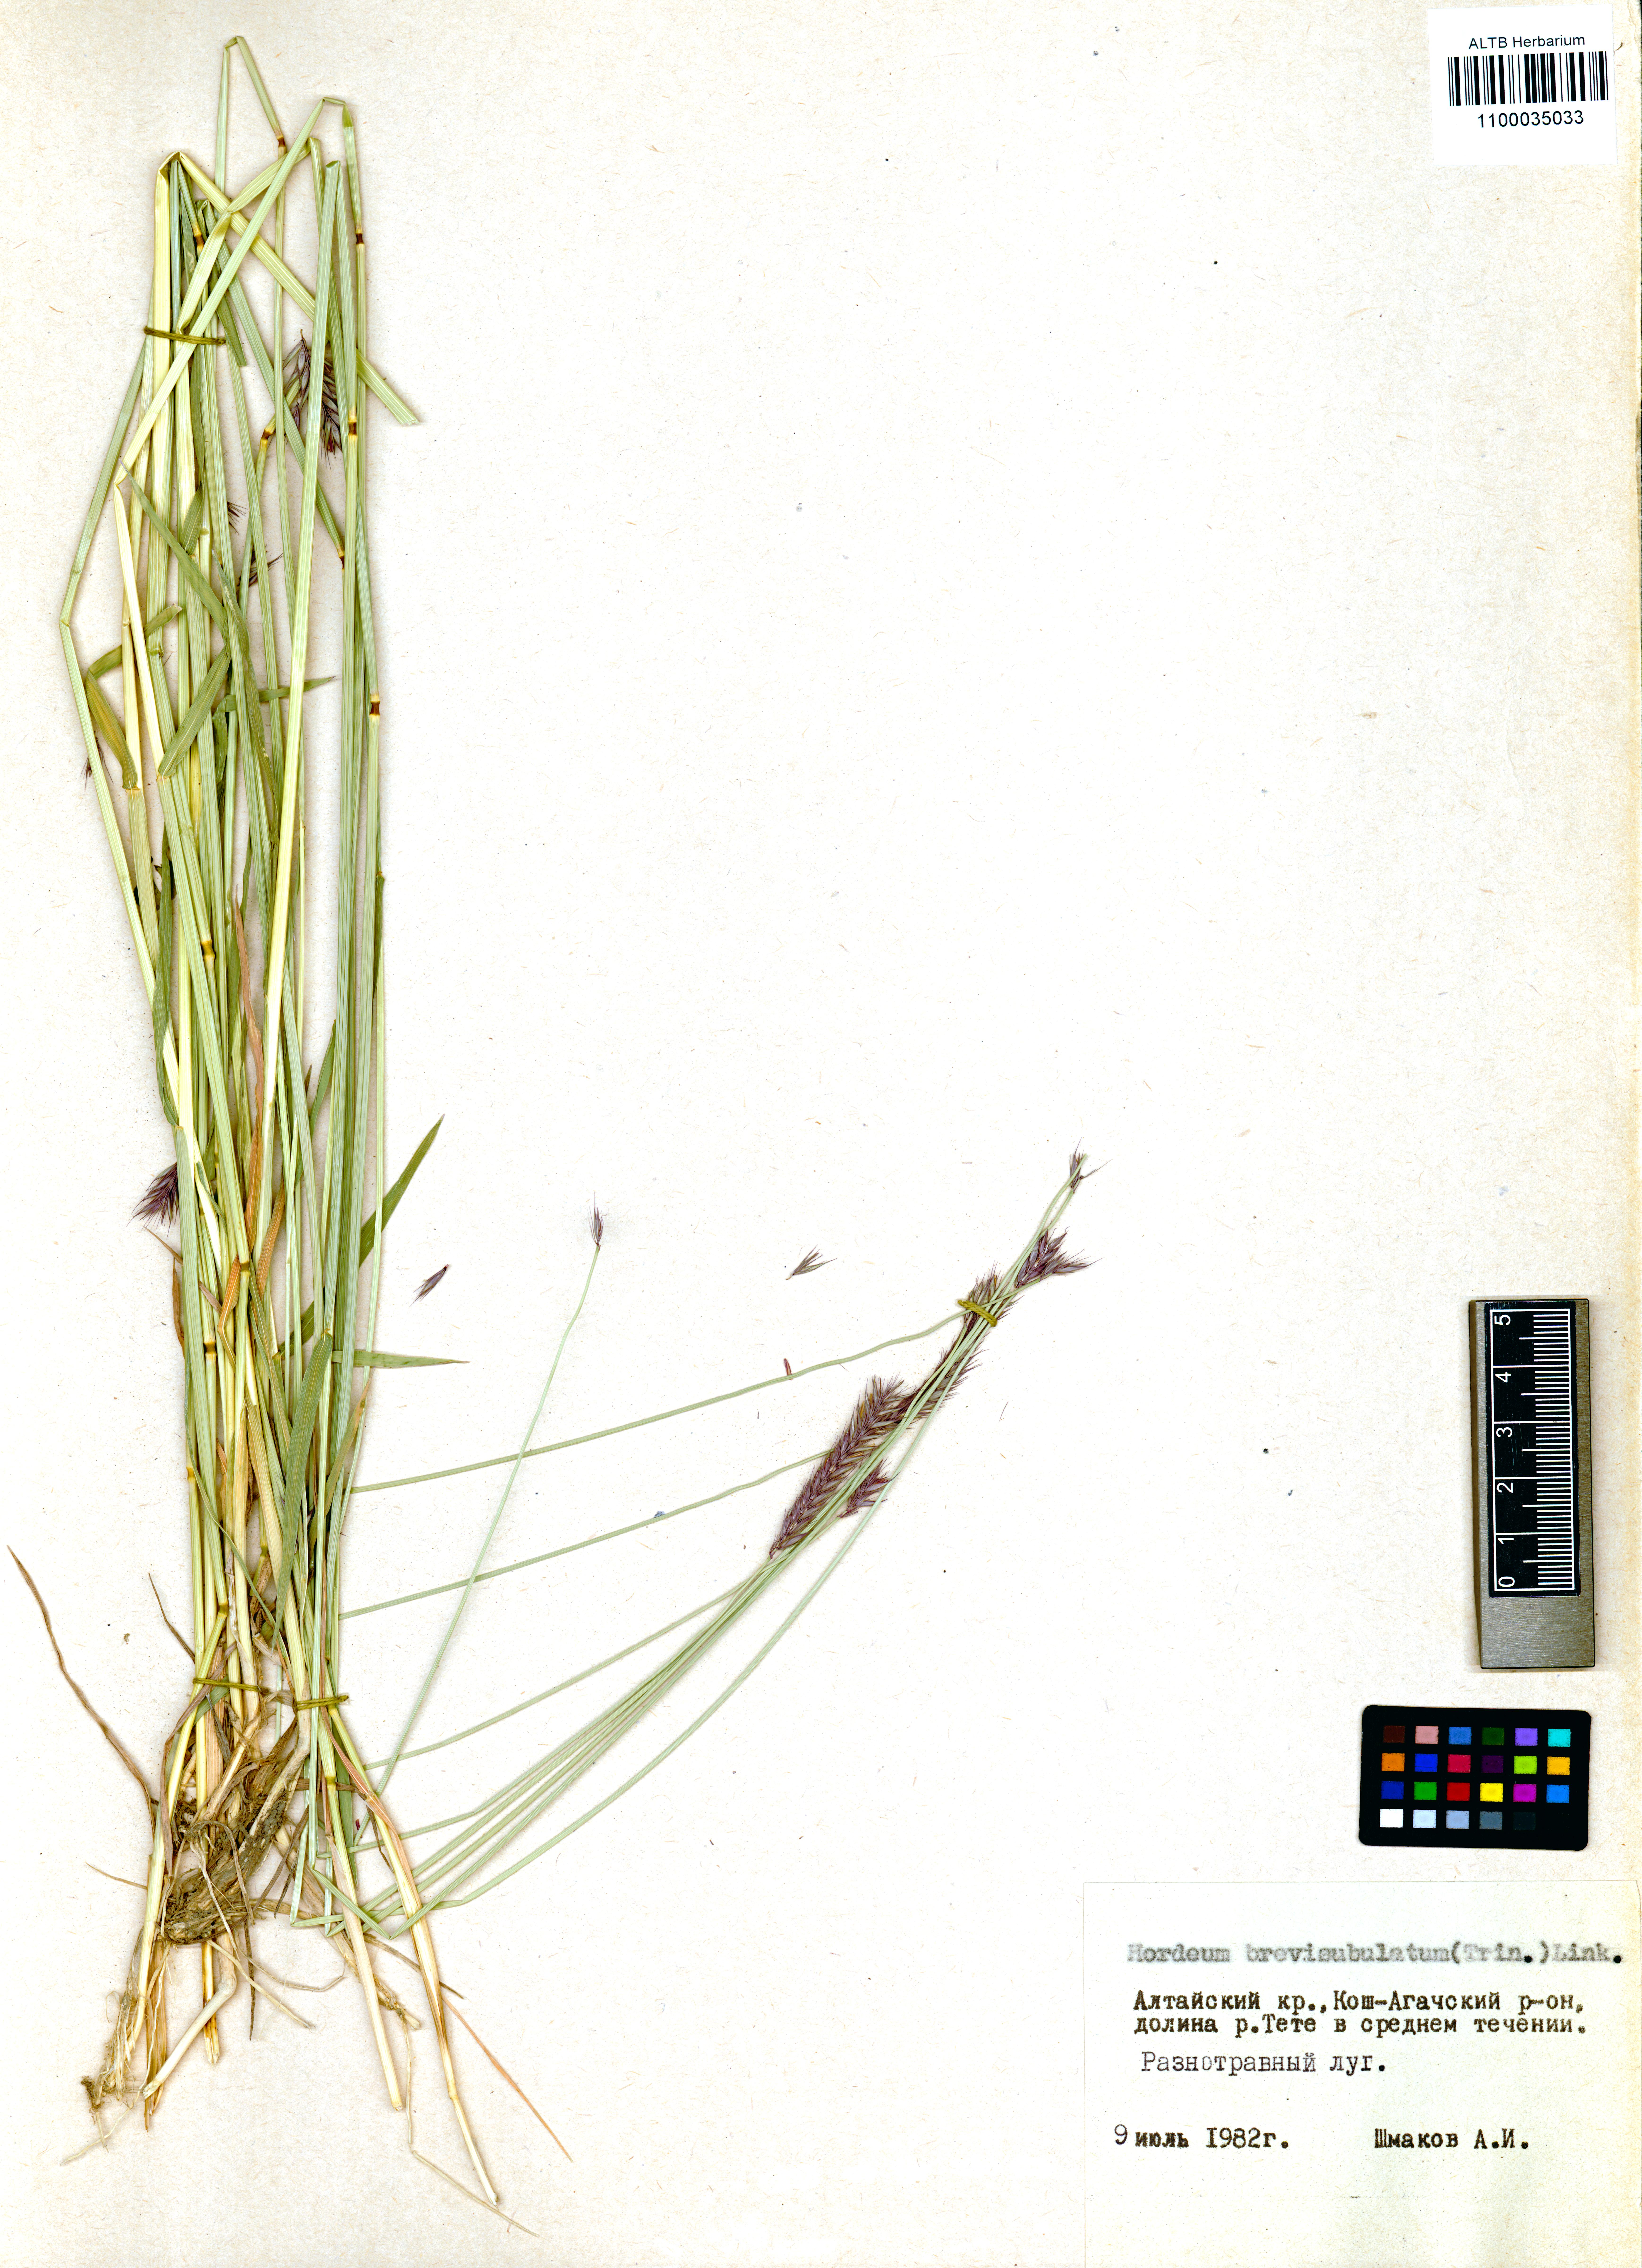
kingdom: Plantae
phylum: Tracheophyta
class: Liliopsida
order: Poales
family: Poaceae
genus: Hordeum
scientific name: Hordeum brevisubulatum
